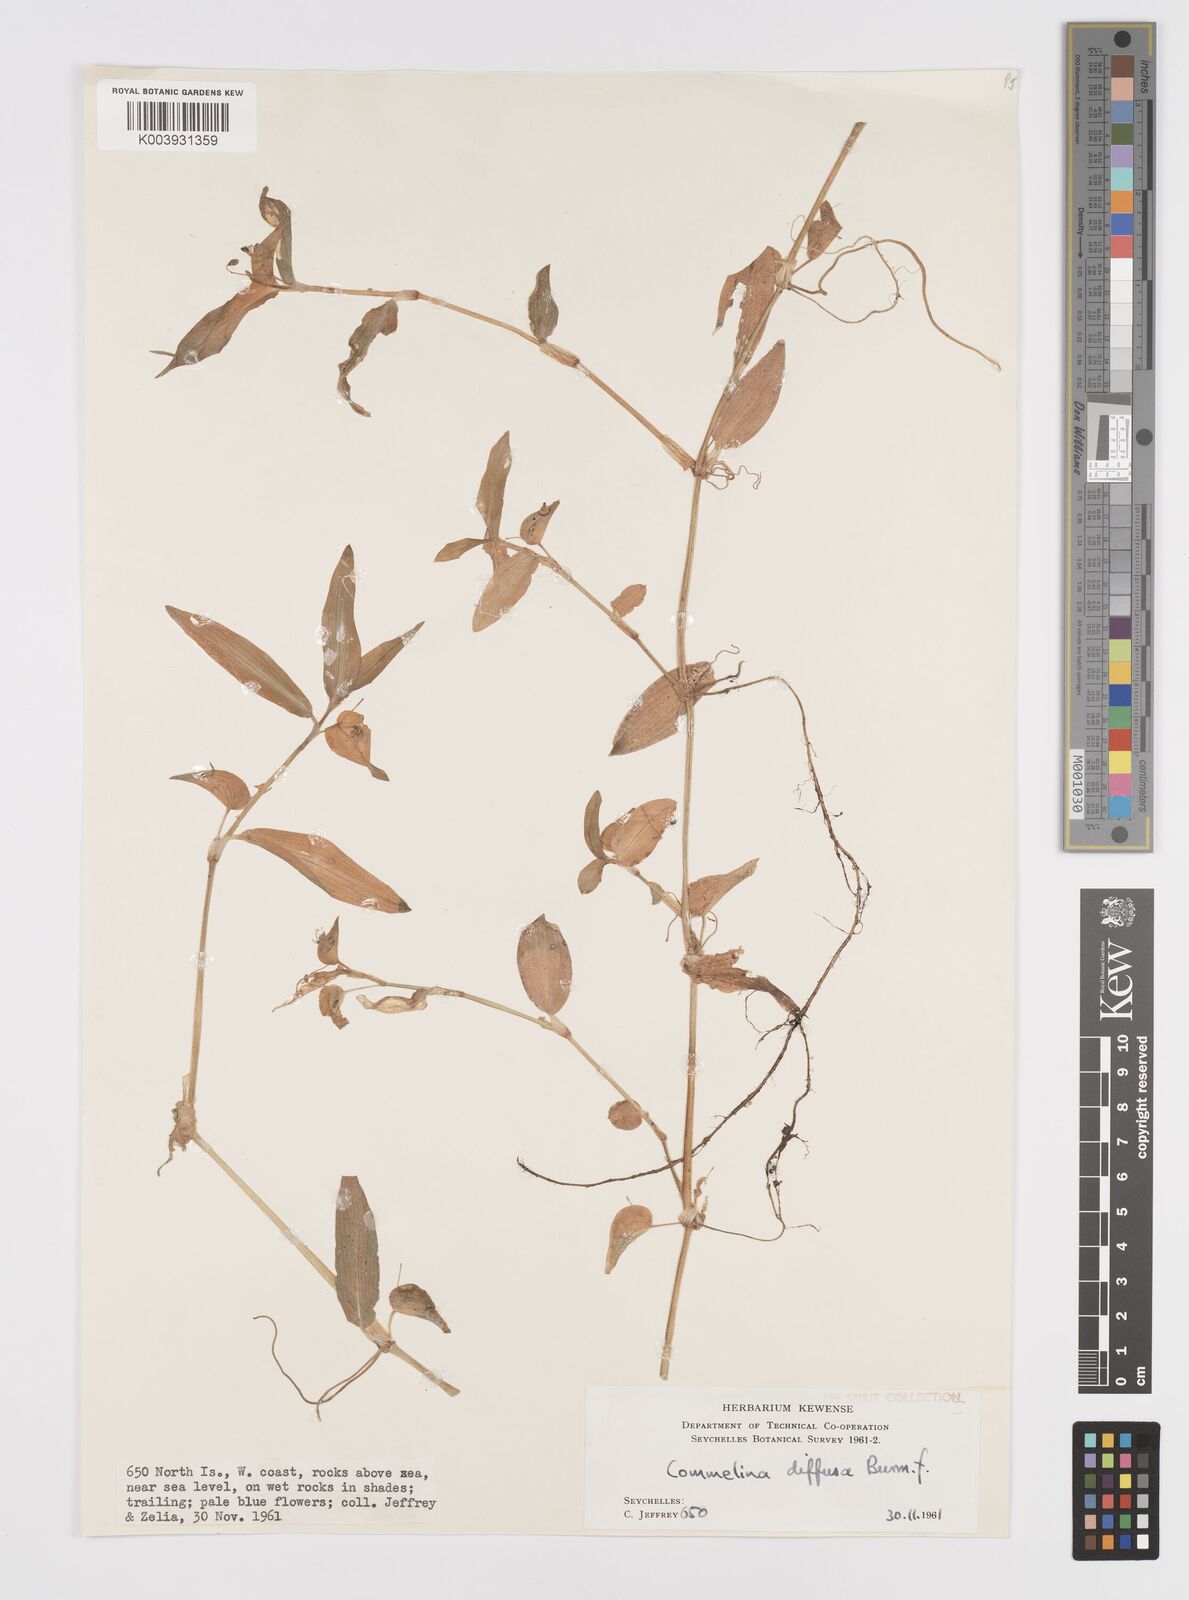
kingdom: Plantae
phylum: Tracheophyta
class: Liliopsida
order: Commelinales
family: Commelinaceae
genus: Murdannia
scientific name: Murdannia nudiflora
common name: Nakedstem dewflower
